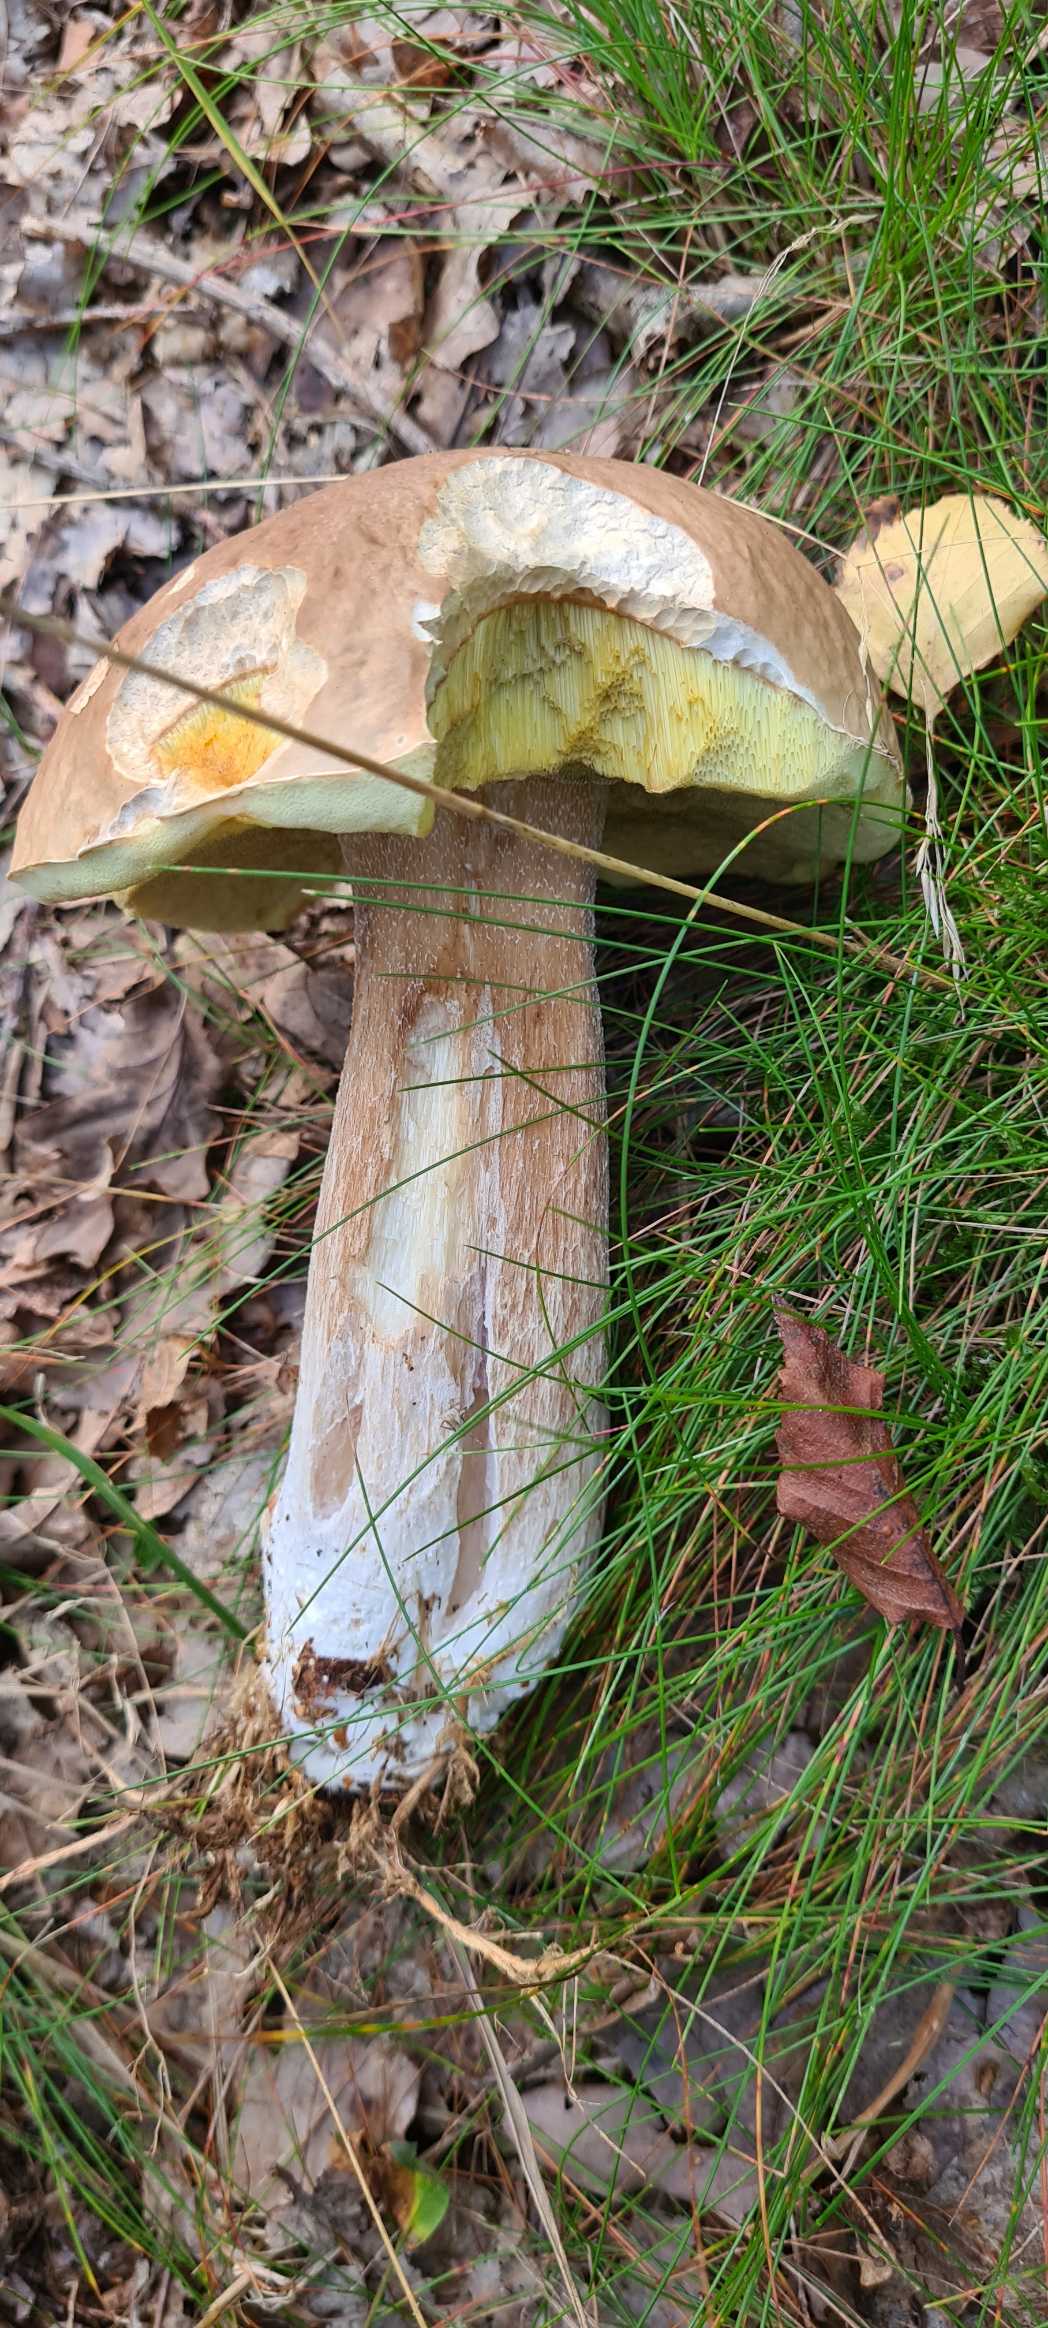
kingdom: Fungi
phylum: Basidiomycota
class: Agaricomycetes
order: Boletales
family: Boletaceae
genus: Boletus
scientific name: Boletus edulis
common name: Spiselig rørhat/karl johan
